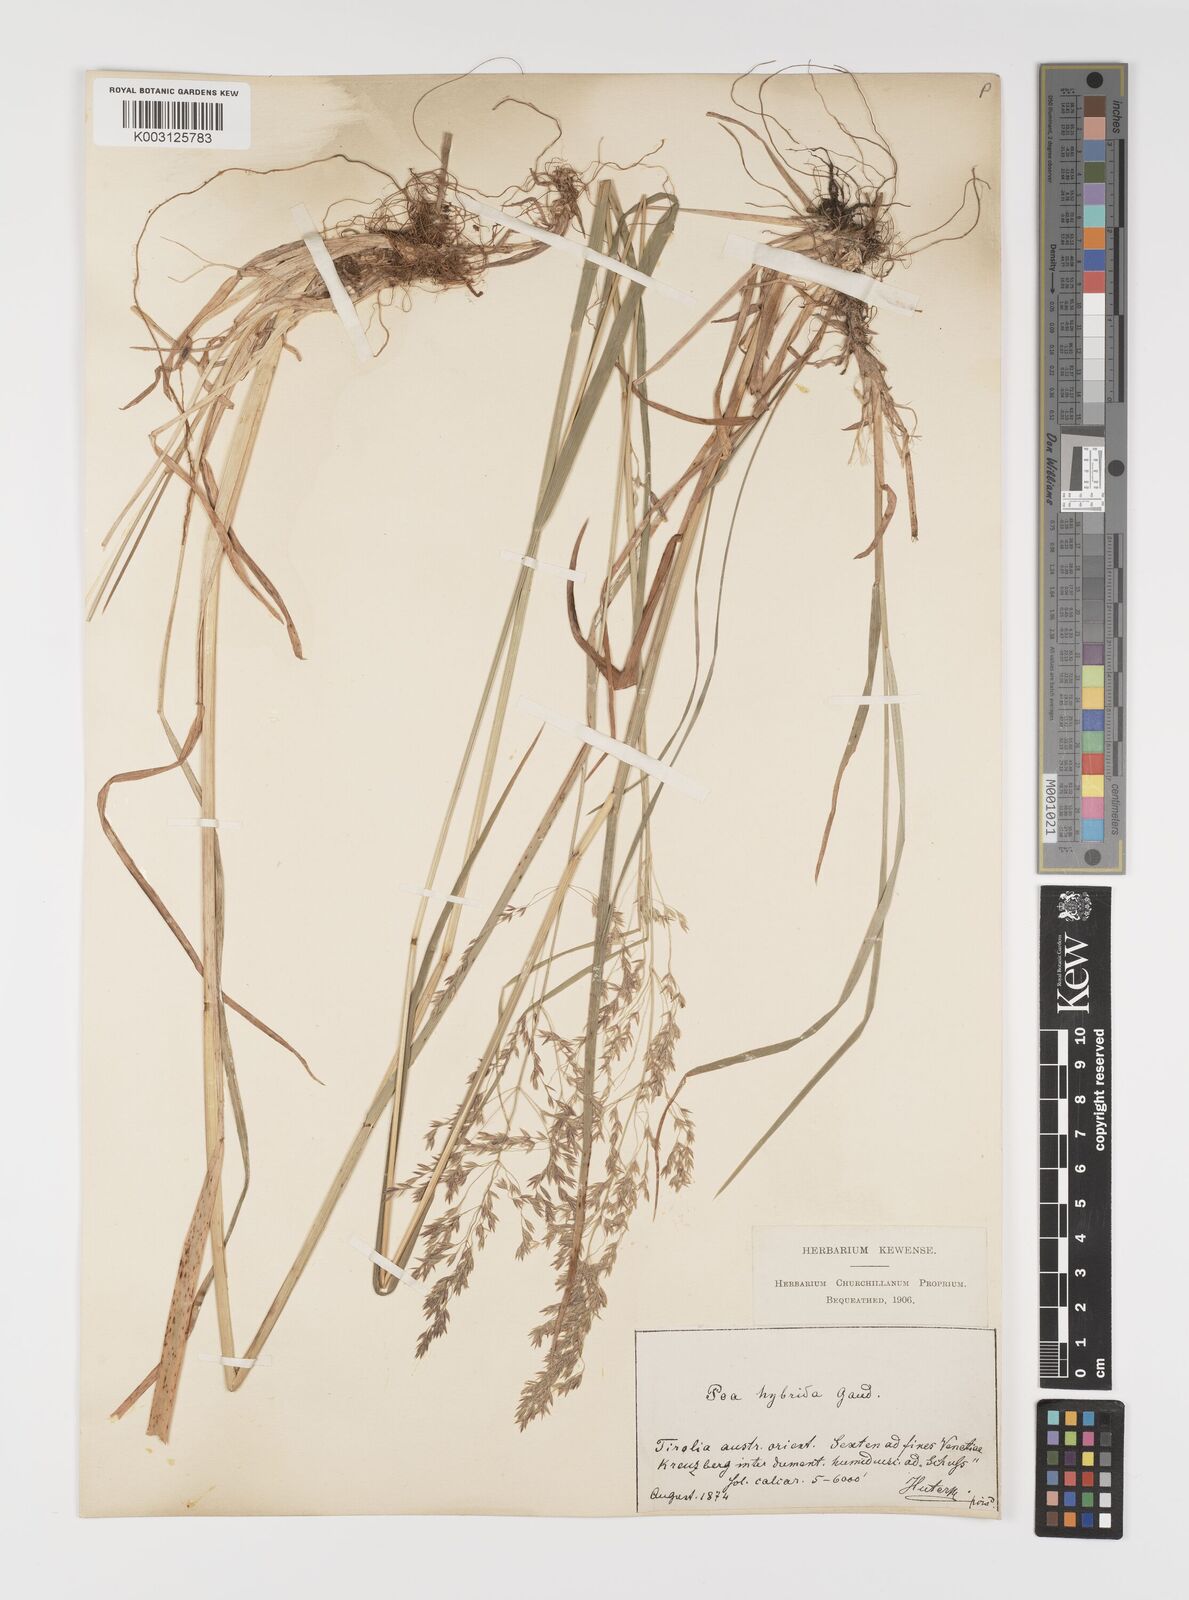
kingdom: Plantae
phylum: Tracheophyta
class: Liliopsida
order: Poales
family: Poaceae
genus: Poa
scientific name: Poa hybrida
